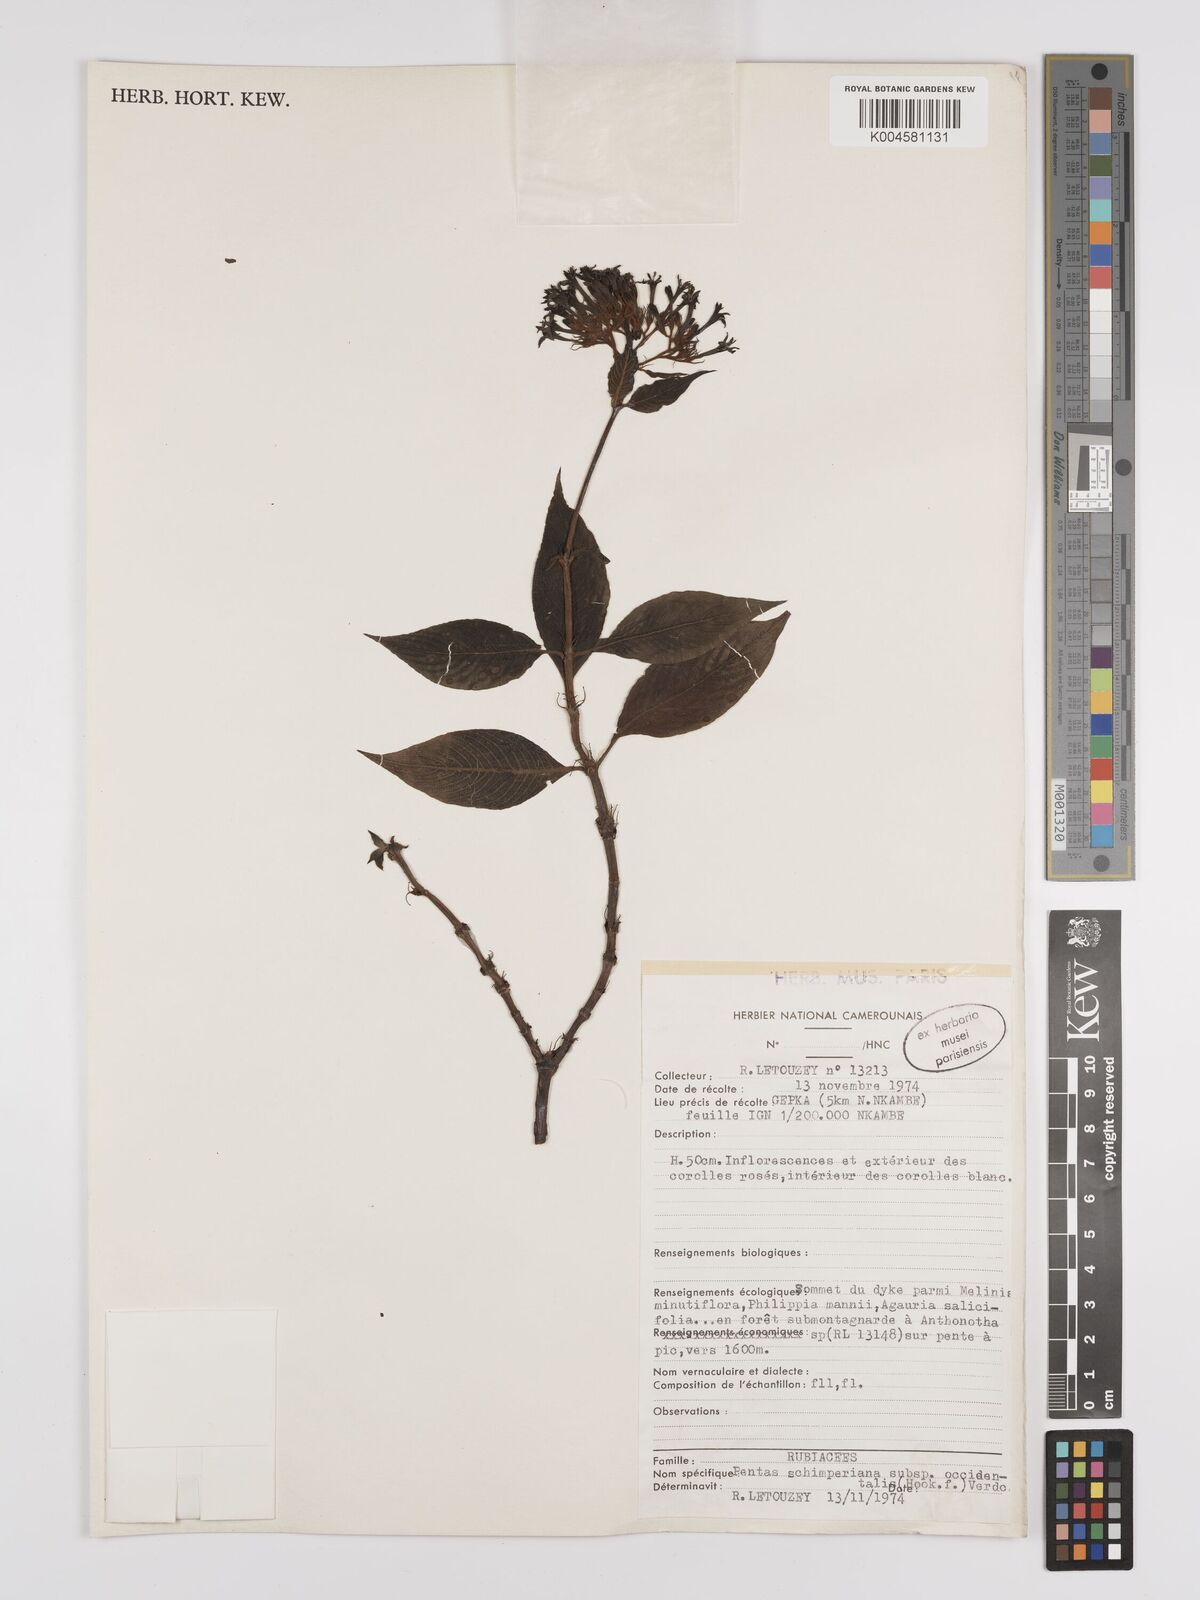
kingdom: Plantae
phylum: Tracheophyta
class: Magnoliopsida
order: Gentianales
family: Rubiaceae
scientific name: Rubiaceae
